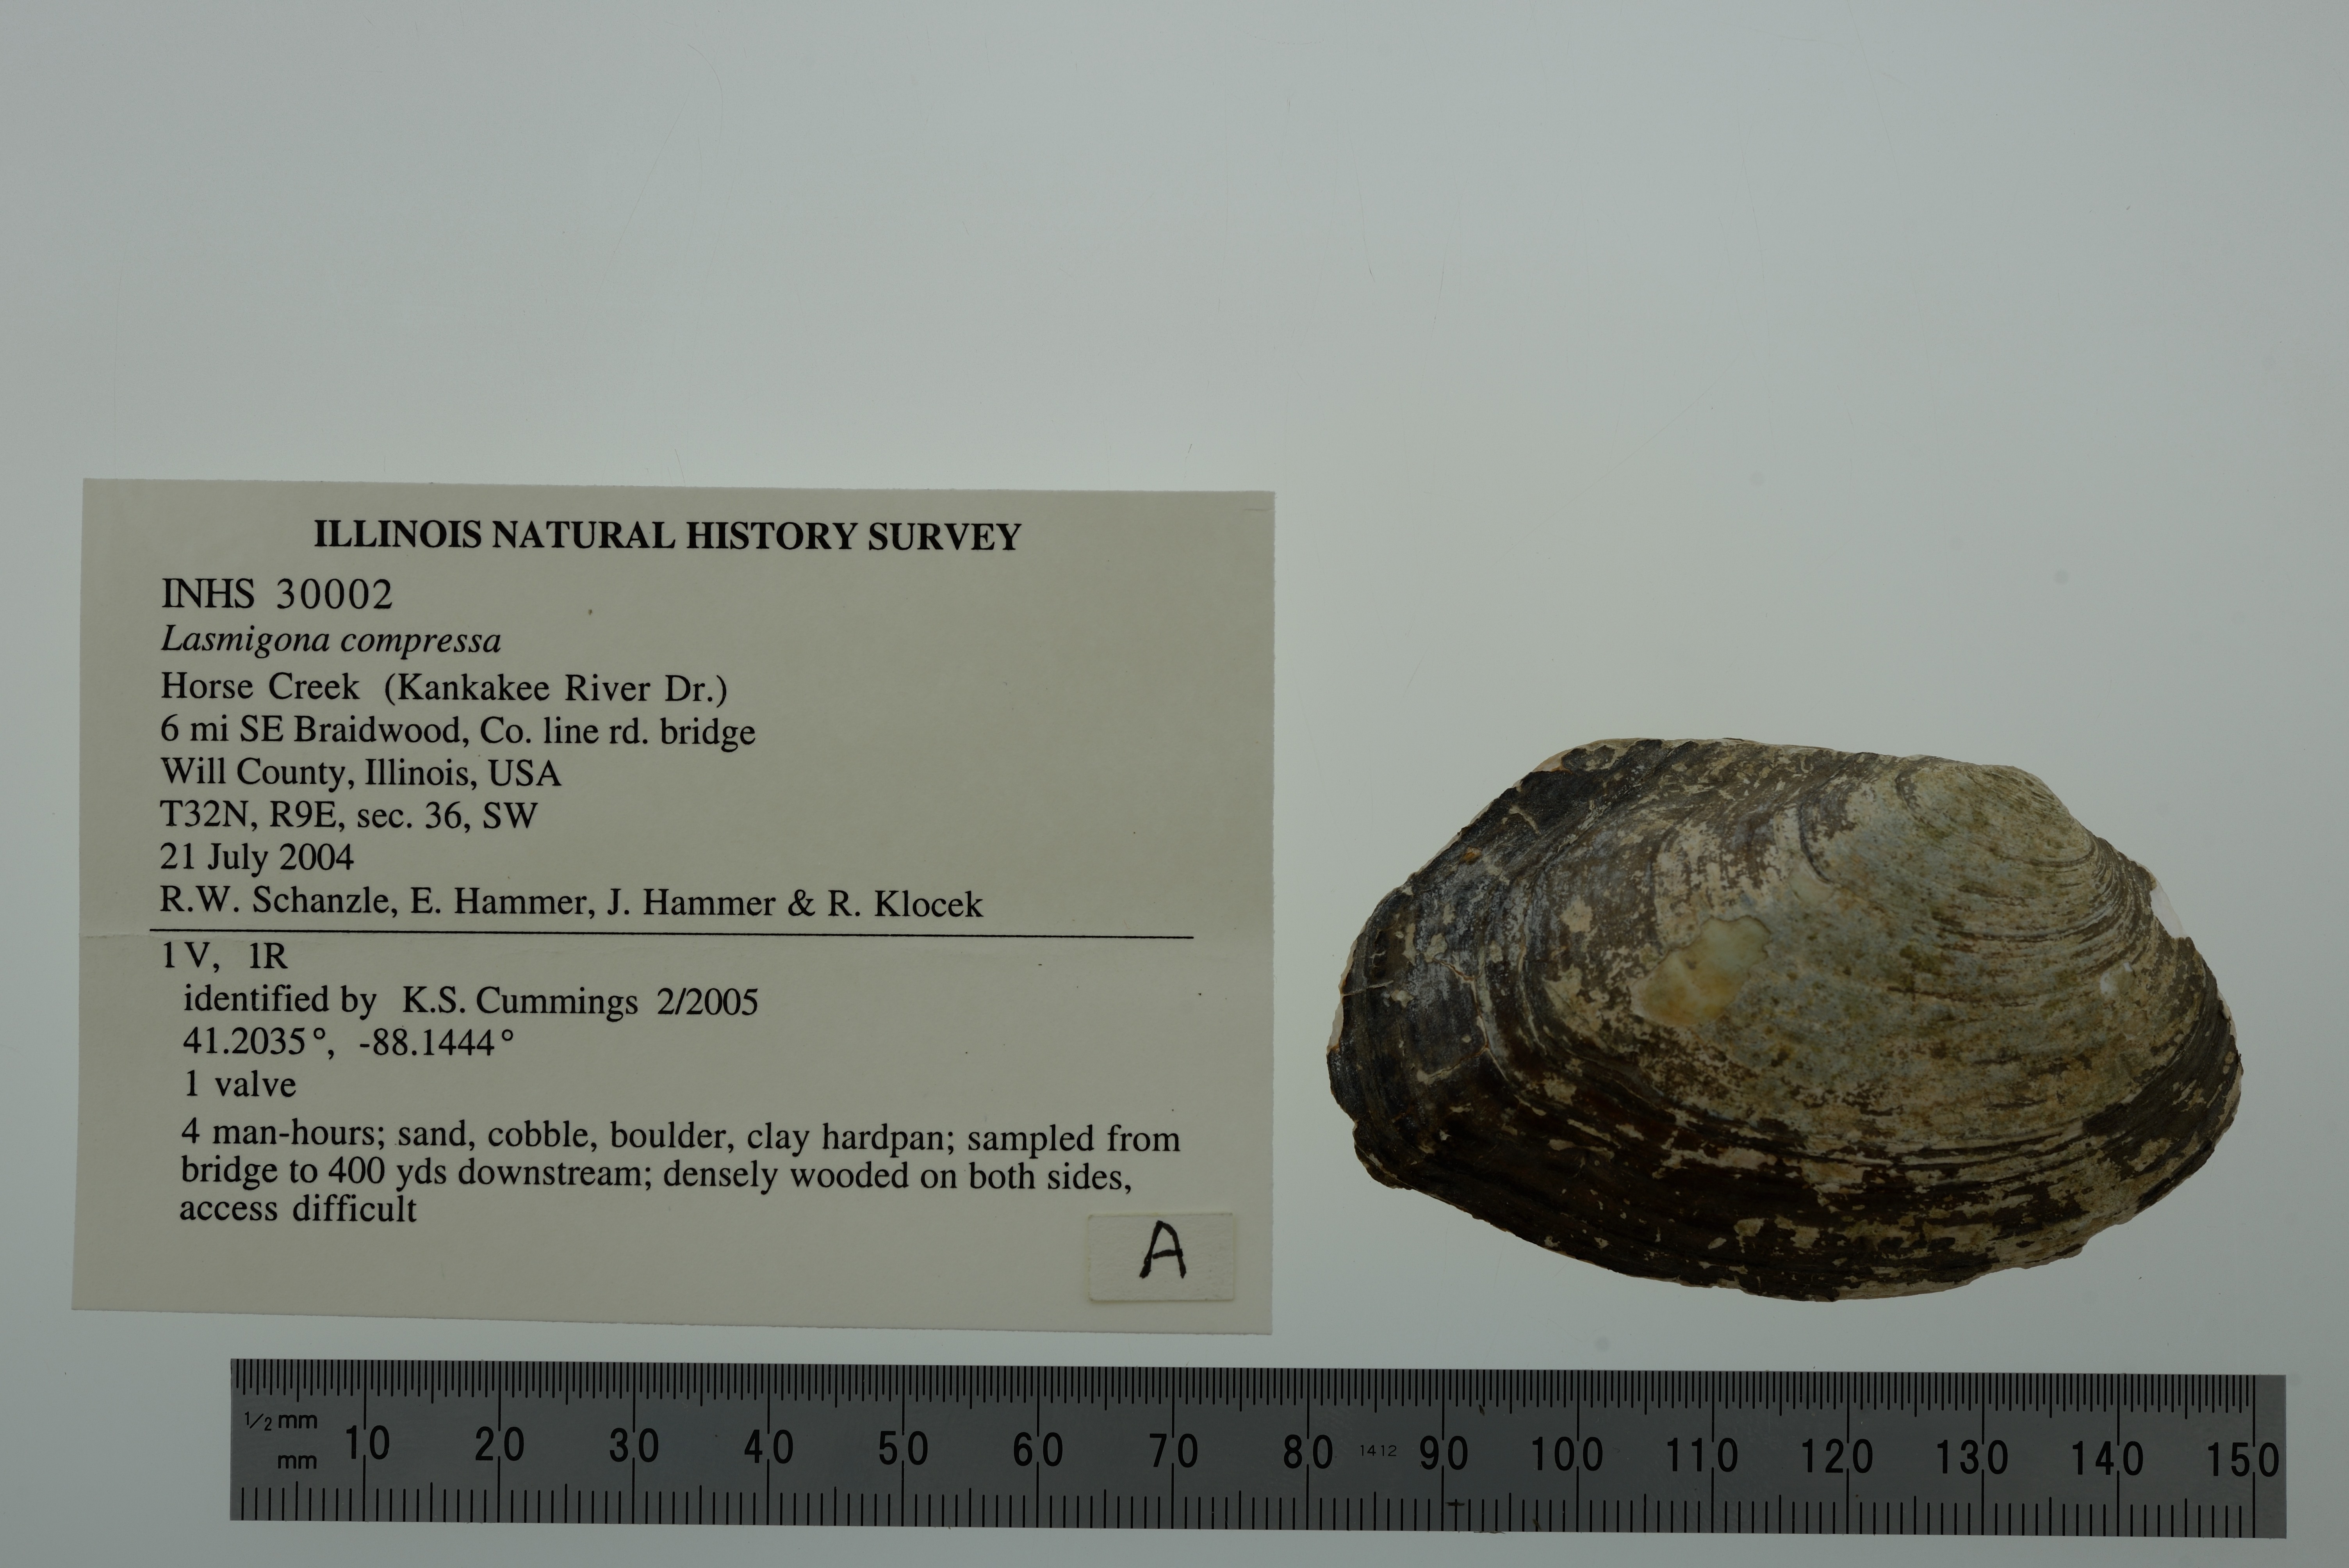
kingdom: Animalia
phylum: Mollusca
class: Bivalvia
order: Unionida
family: Unionidae
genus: Lasmigona
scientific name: Lasmigona compressa
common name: Creek heelsplitter
